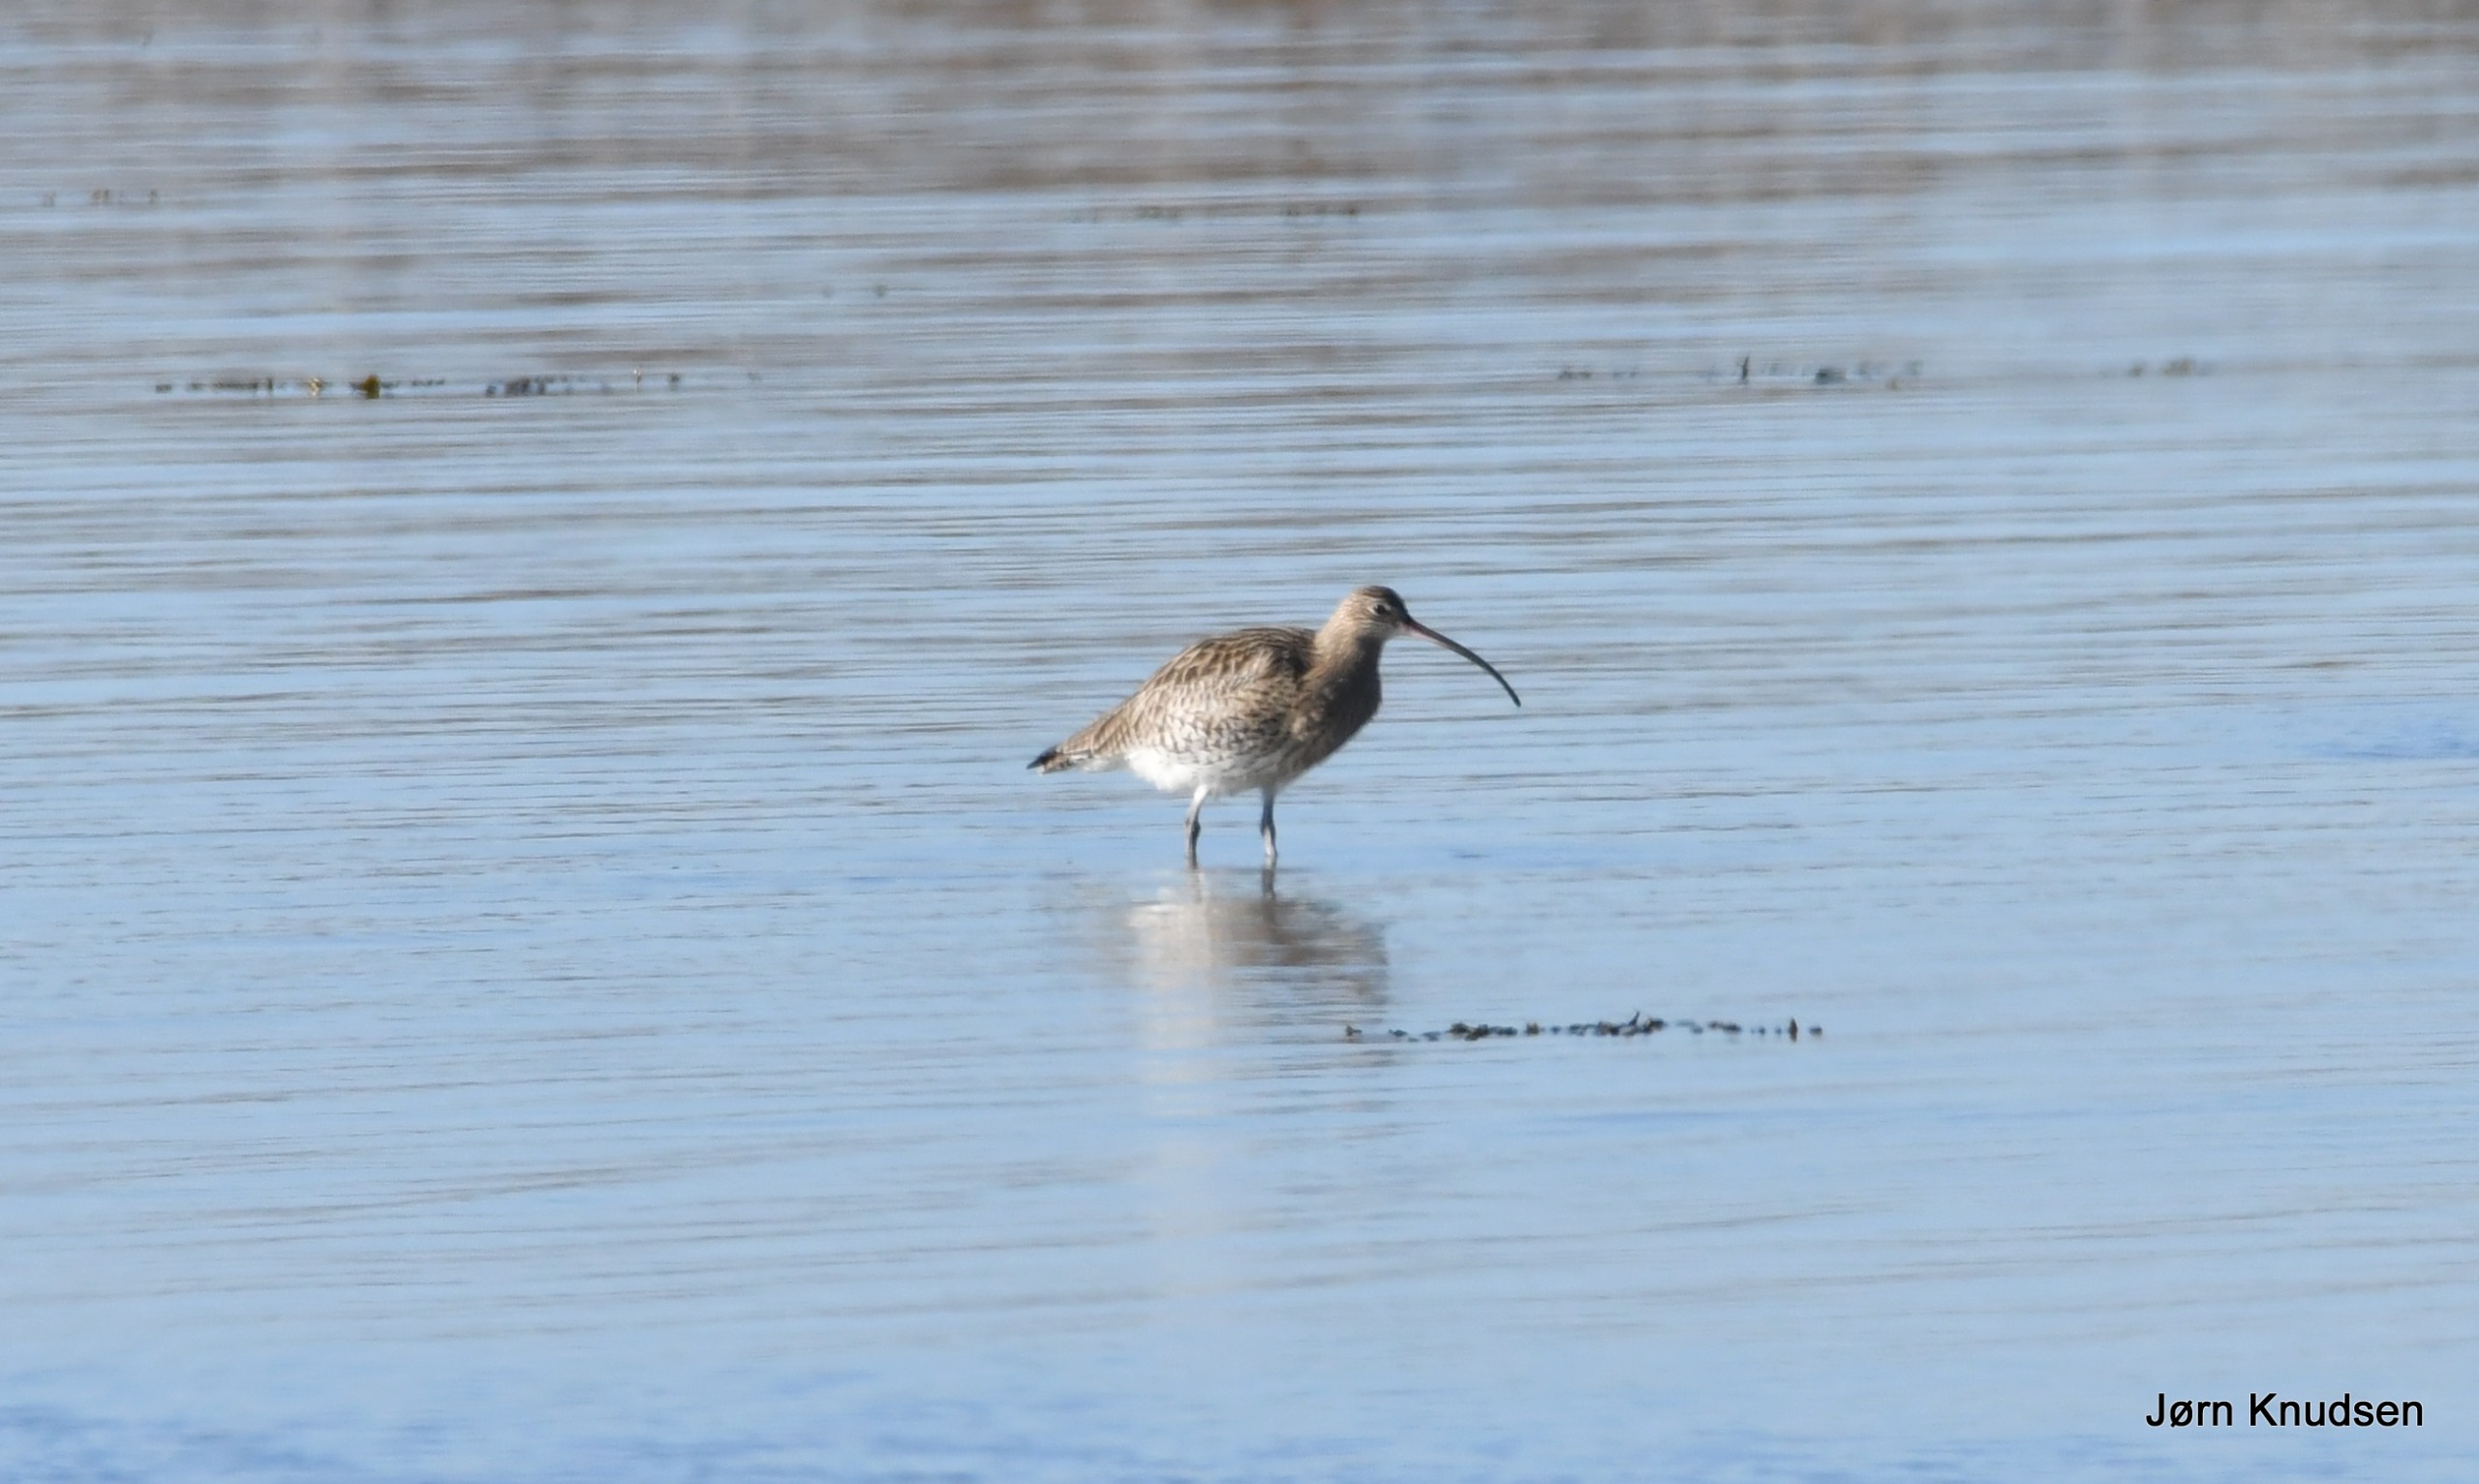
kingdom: Animalia
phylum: Chordata
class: Aves
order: Charadriiformes
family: Scolopacidae
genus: Numenius
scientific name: Numenius arquata
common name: Storspove
